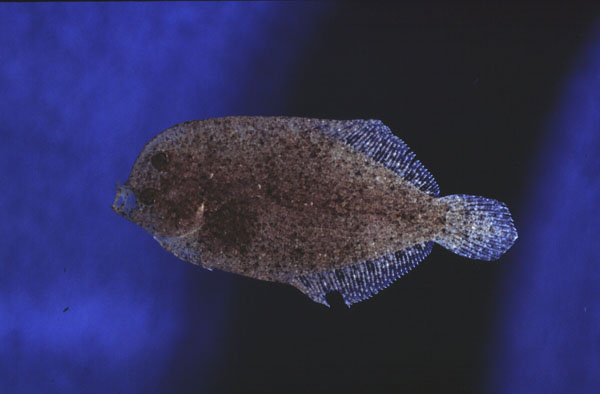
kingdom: Animalia
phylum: Chordata
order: Pleuronectiformes
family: Bothidae
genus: Engyprosopon
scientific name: Engyprosopon hureaui
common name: Hureau's flounder
